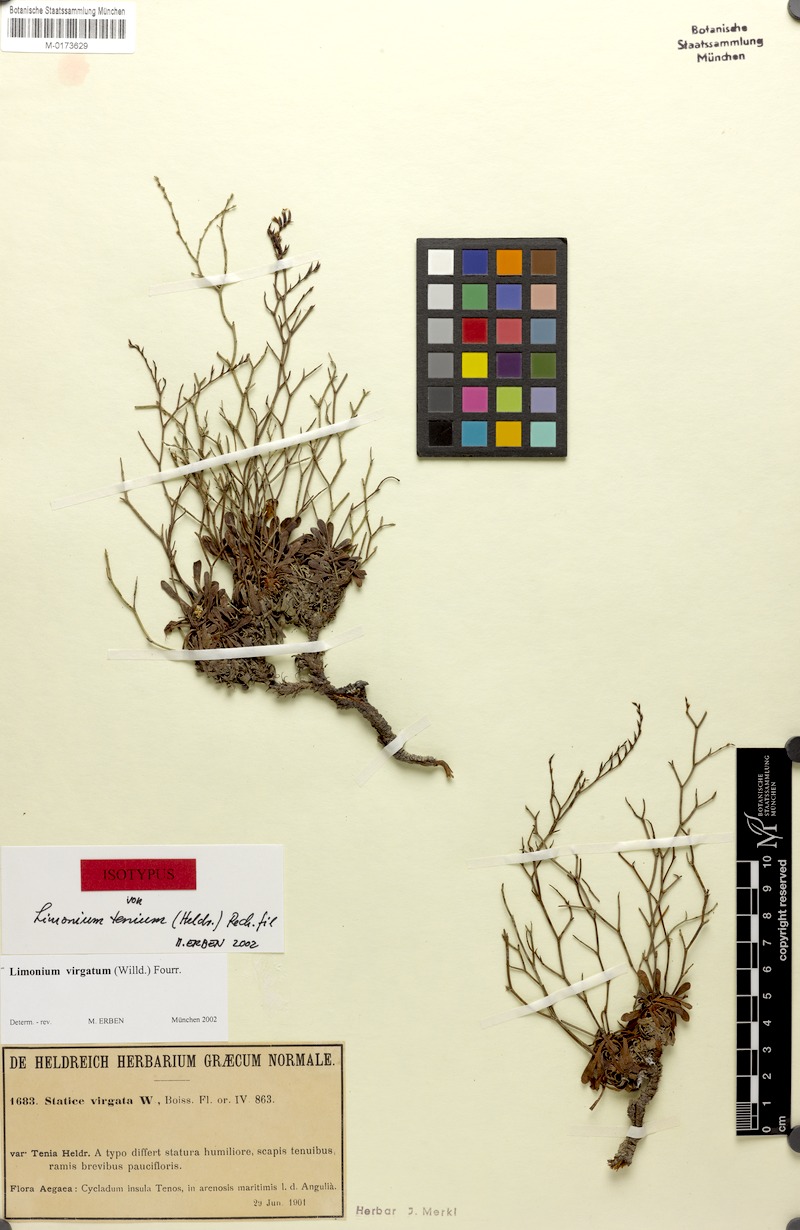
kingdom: Plantae
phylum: Tracheophyta
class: Magnoliopsida
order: Caryophyllales
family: Plumbaginaceae
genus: Limonium
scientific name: Limonium virgatum
